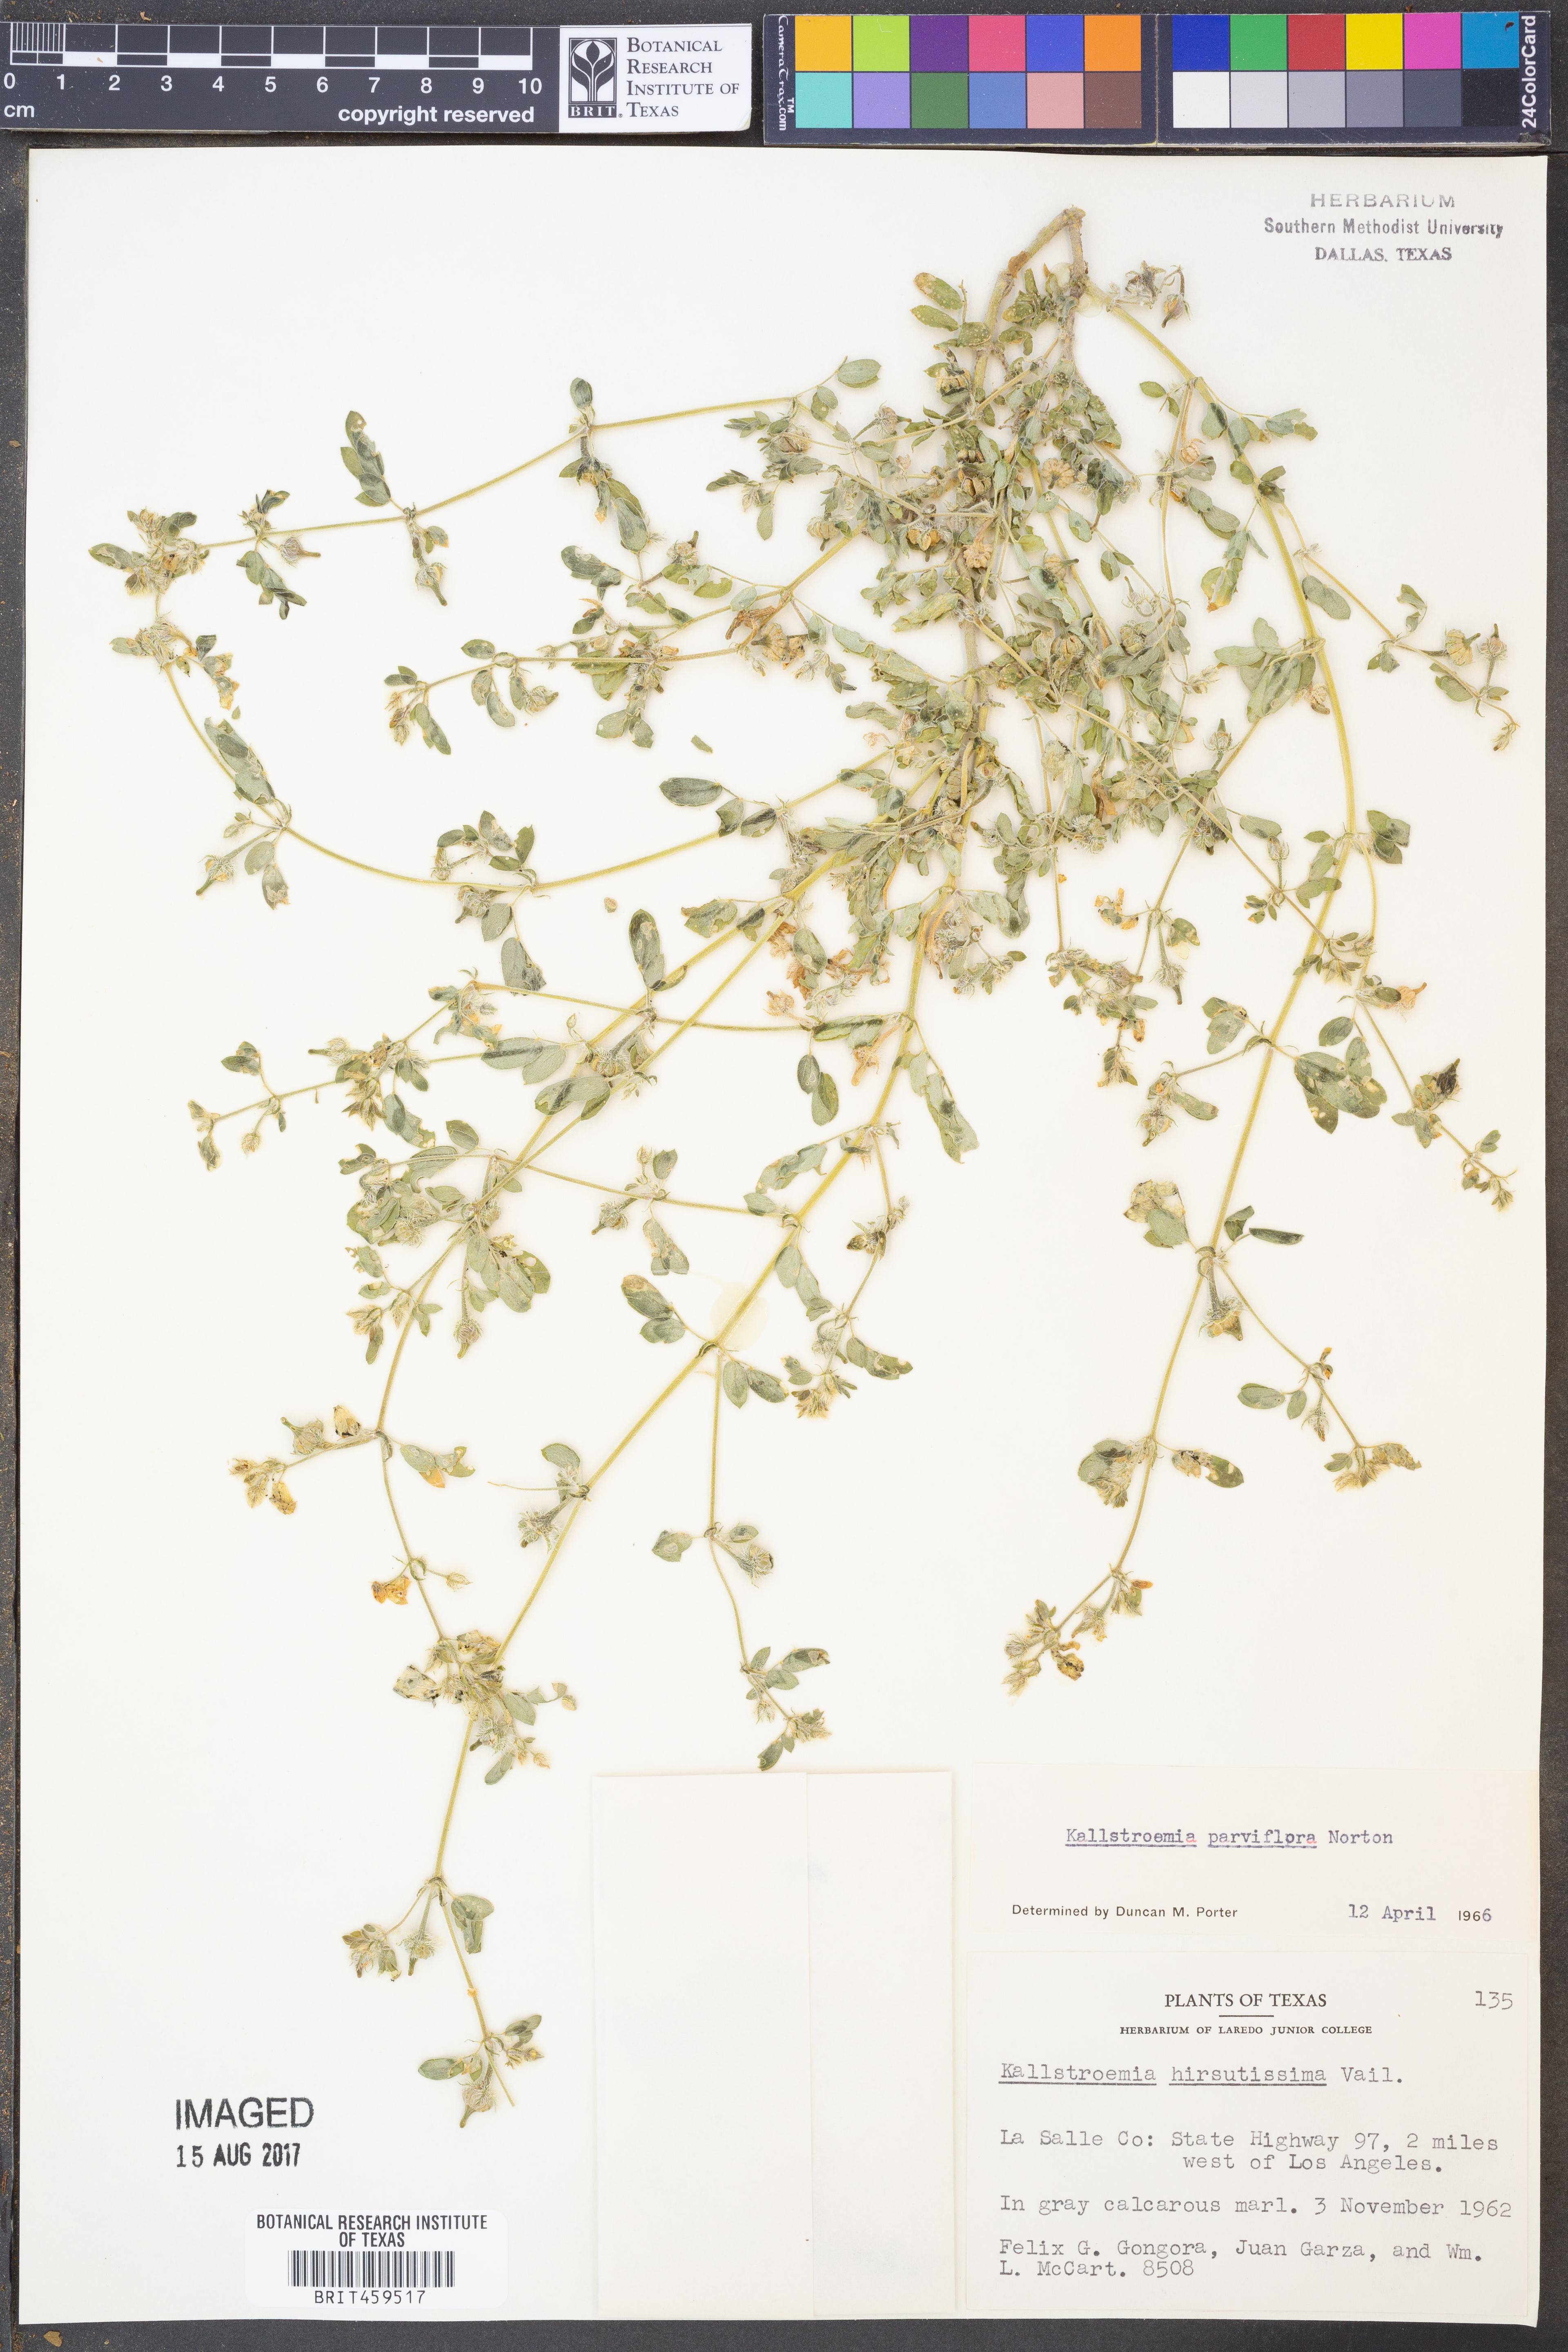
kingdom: Plantae
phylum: Tracheophyta
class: Magnoliopsida
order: Zygophyllales
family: Zygophyllaceae
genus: Kallstroemia
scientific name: Kallstroemia parviflora
